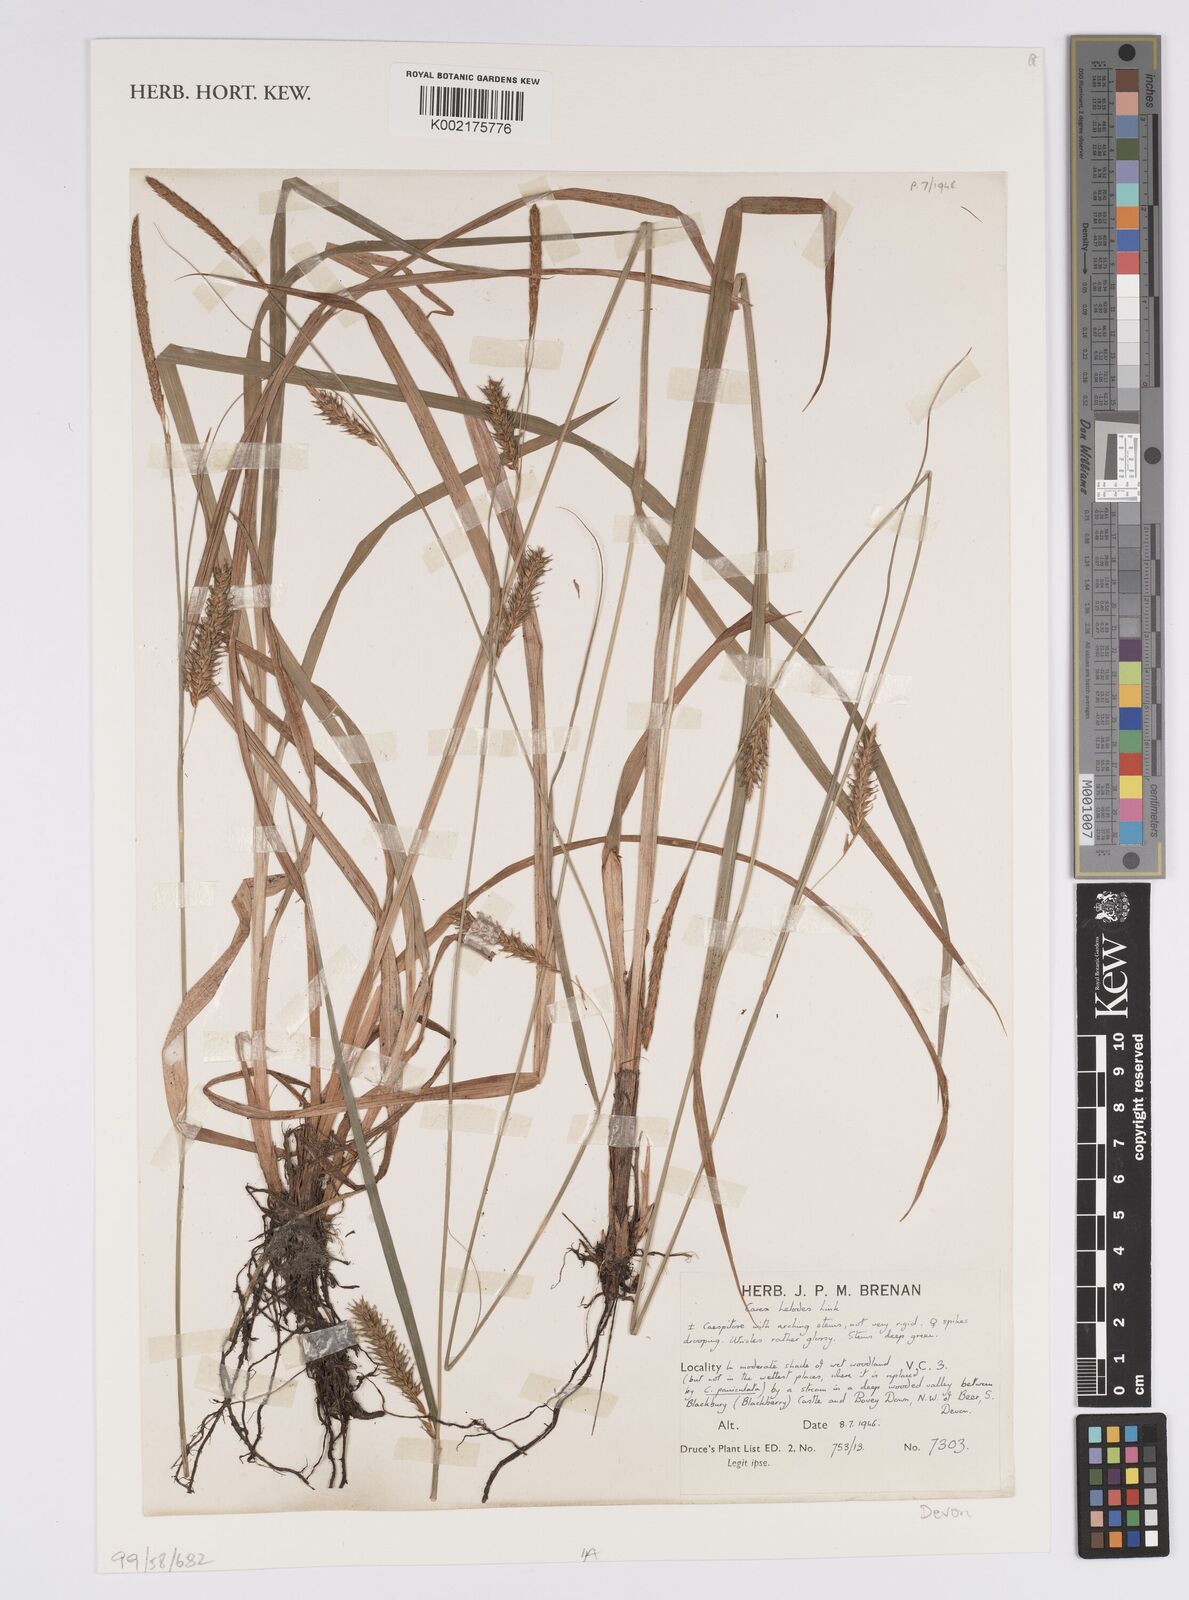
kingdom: Plantae
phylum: Tracheophyta
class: Liliopsida
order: Poales
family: Cyperaceae
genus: Carex
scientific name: Carex laevigata
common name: Smooth-stalked sedge
